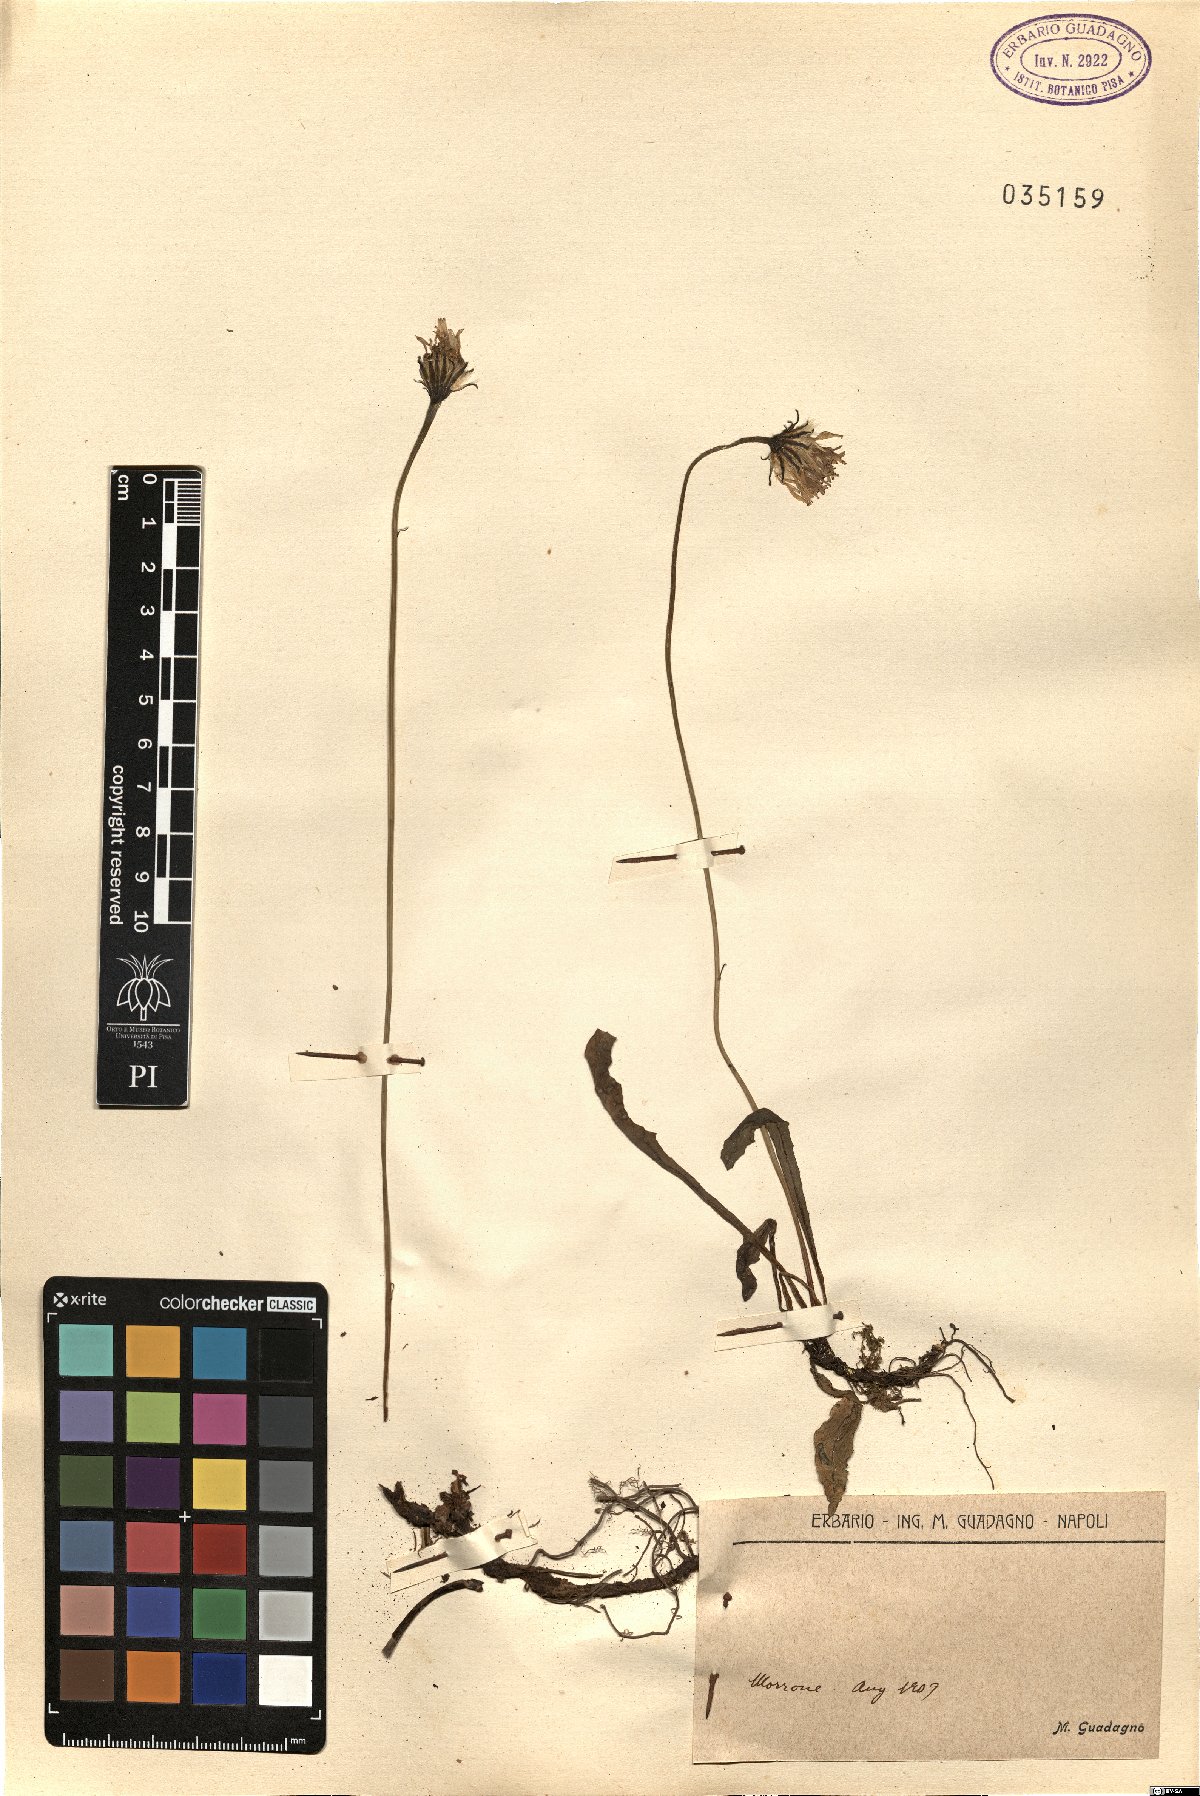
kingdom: Plantae
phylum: Tracheophyta
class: Magnoliopsida
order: Asterales
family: Asteraceae
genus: Leontodon
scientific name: Leontodon
